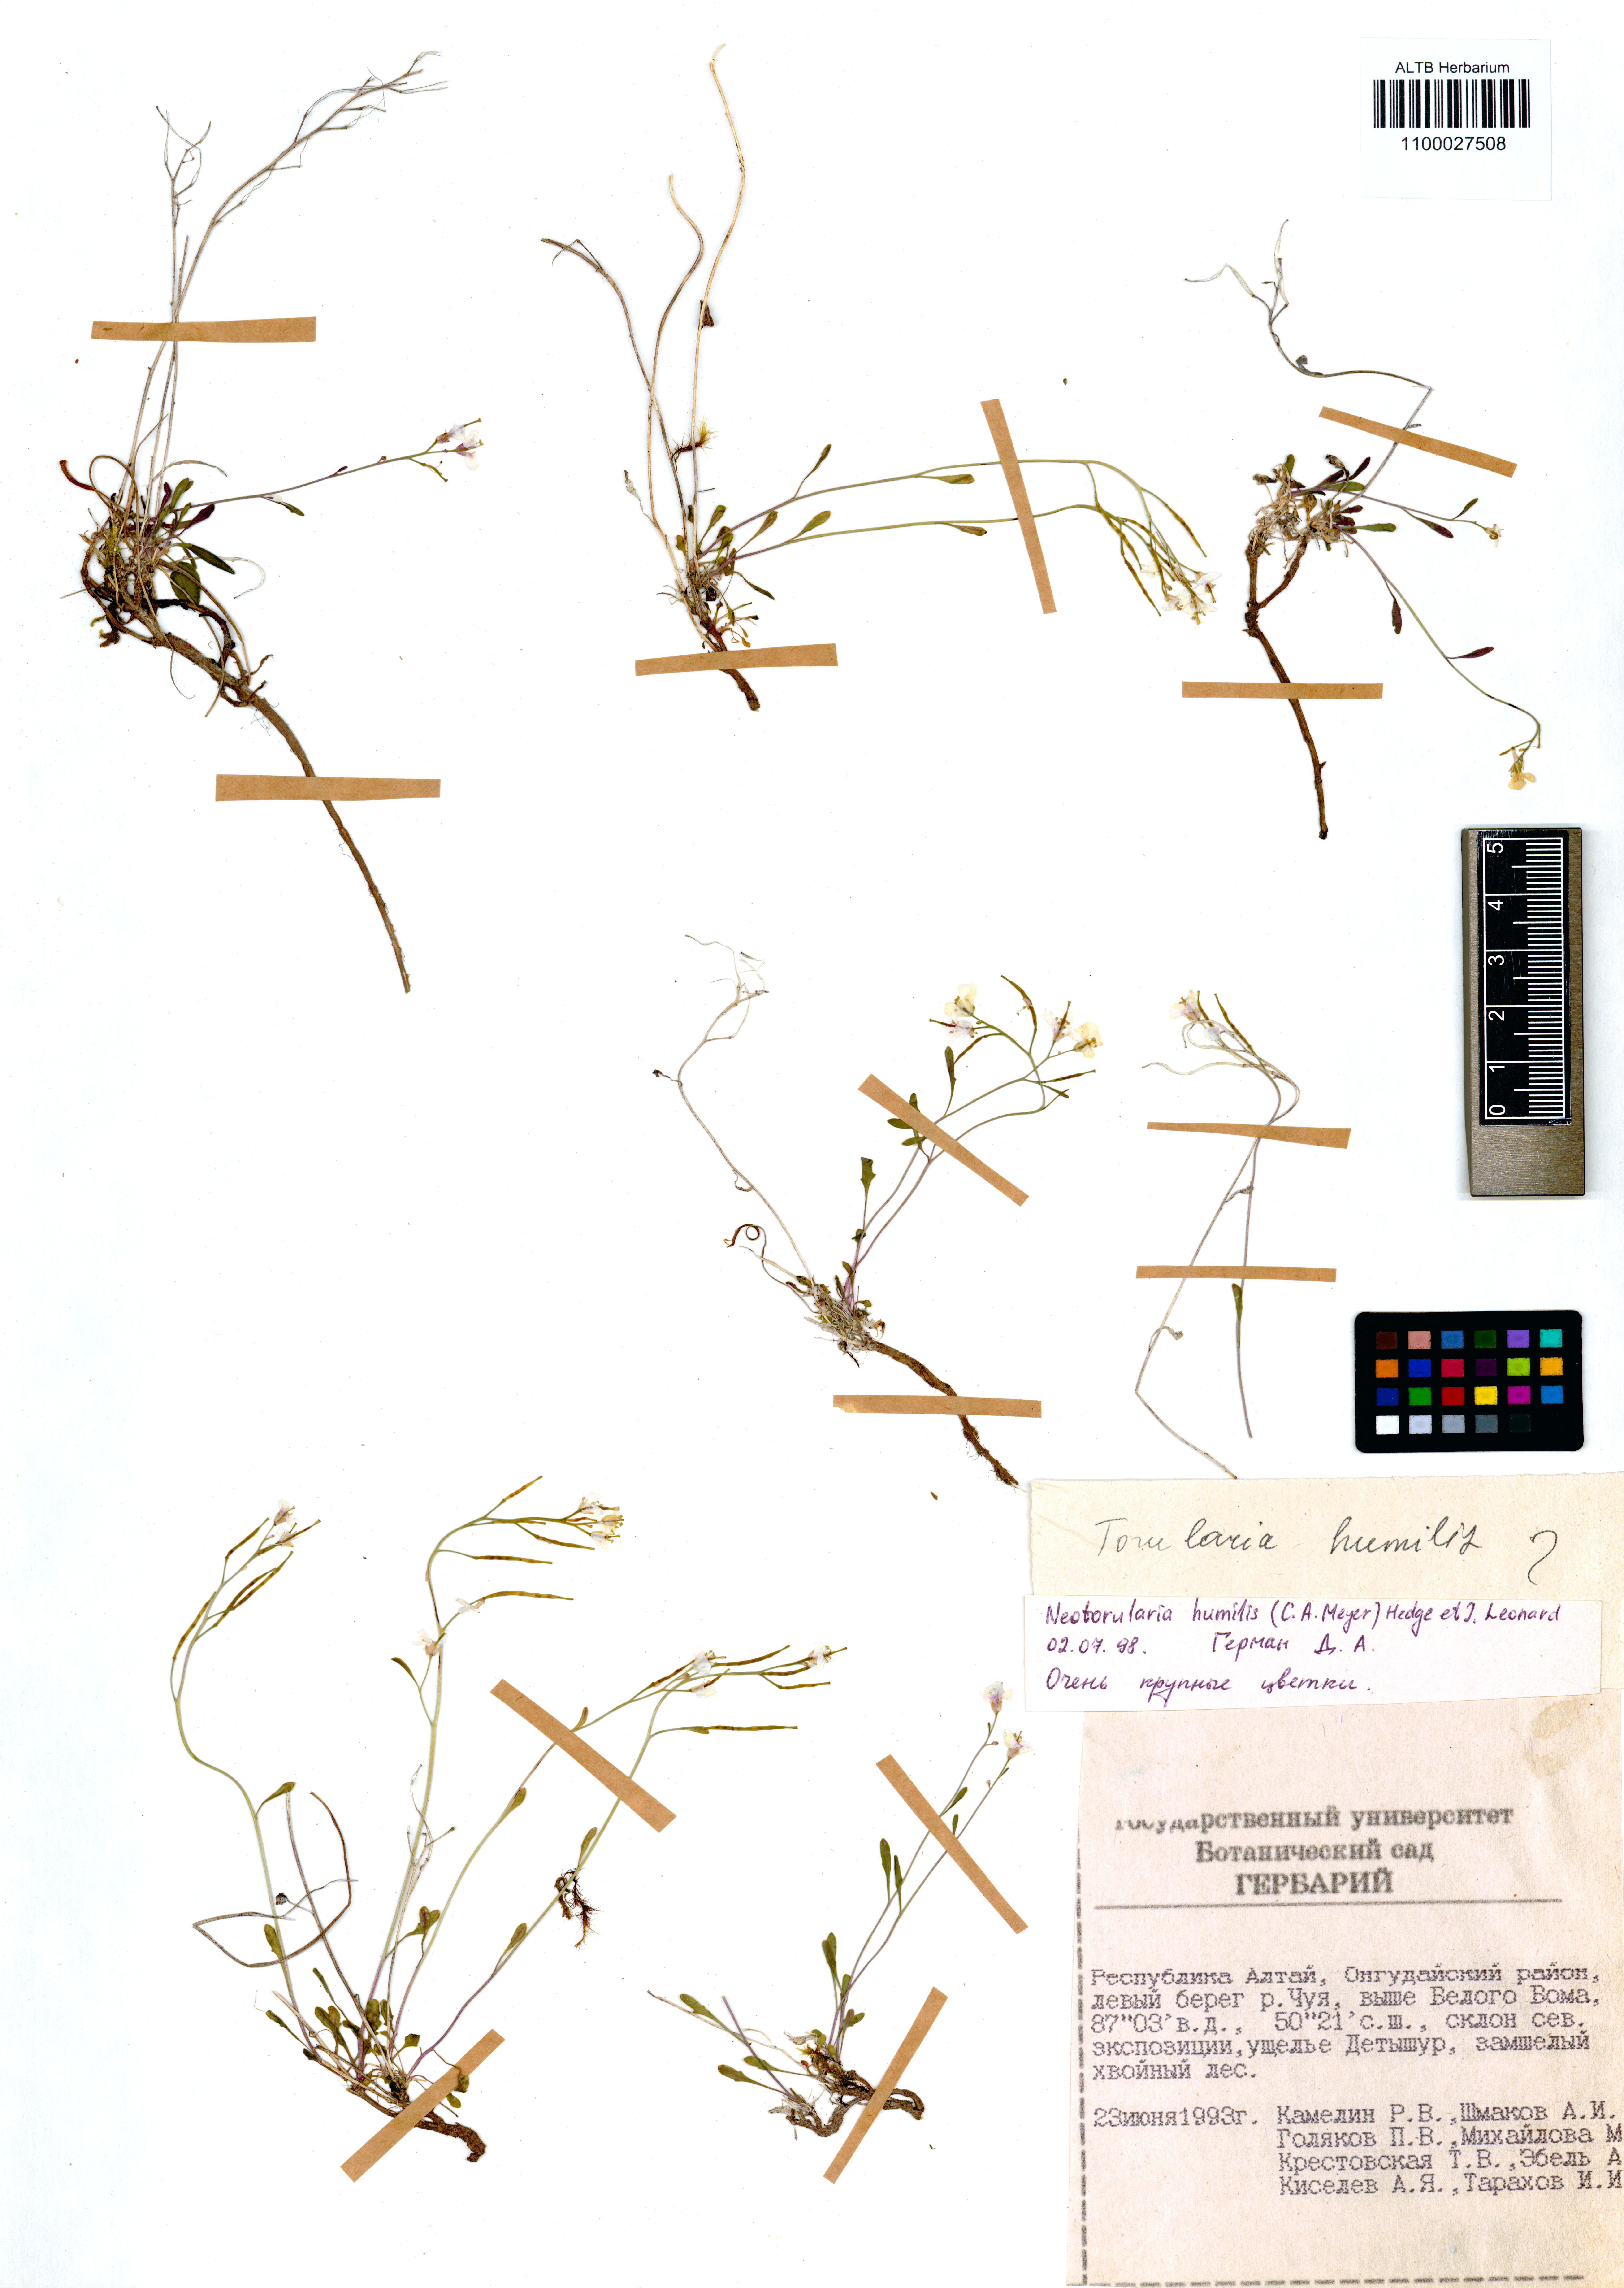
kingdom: Plantae
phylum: Tracheophyta
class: Magnoliopsida
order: Brassicales
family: Brassicaceae
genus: Braya
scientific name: Braya humilis
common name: Alpine northern rockcress
